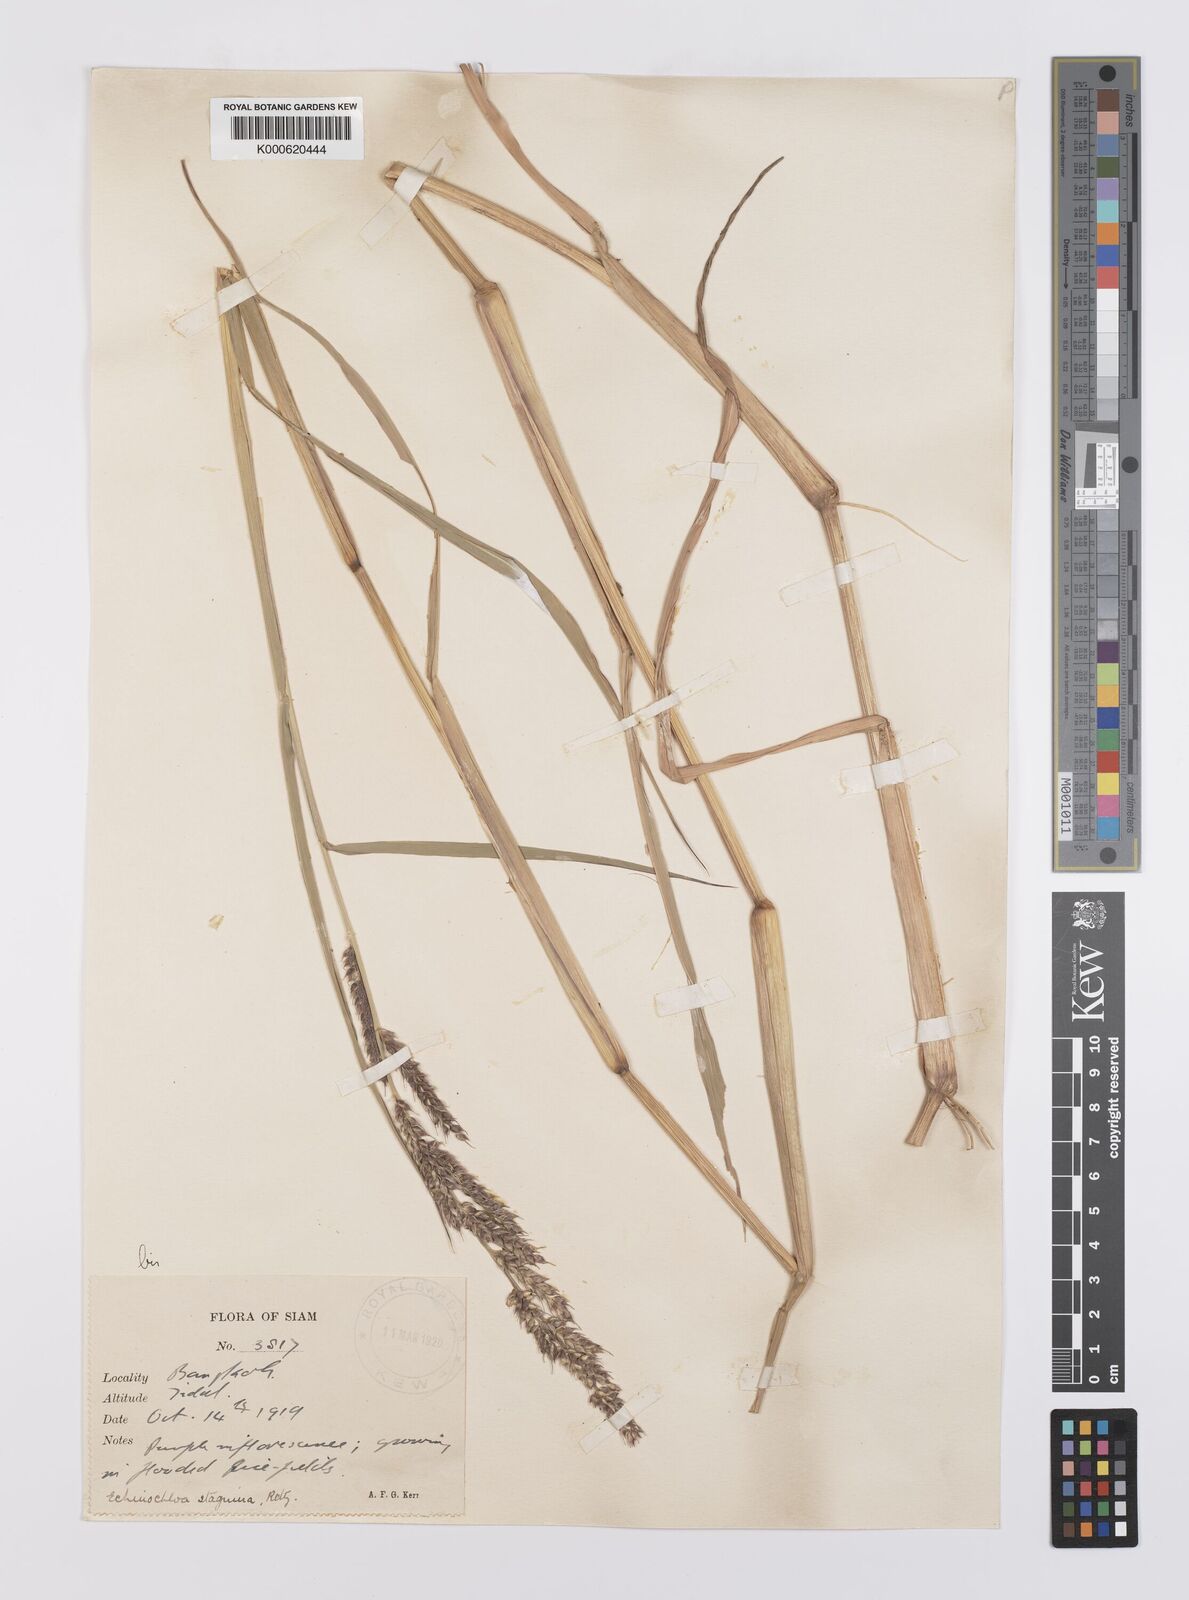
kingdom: Plantae
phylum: Tracheophyta
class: Liliopsida
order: Poales
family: Poaceae
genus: Echinochloa
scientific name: Echinochloa picta
